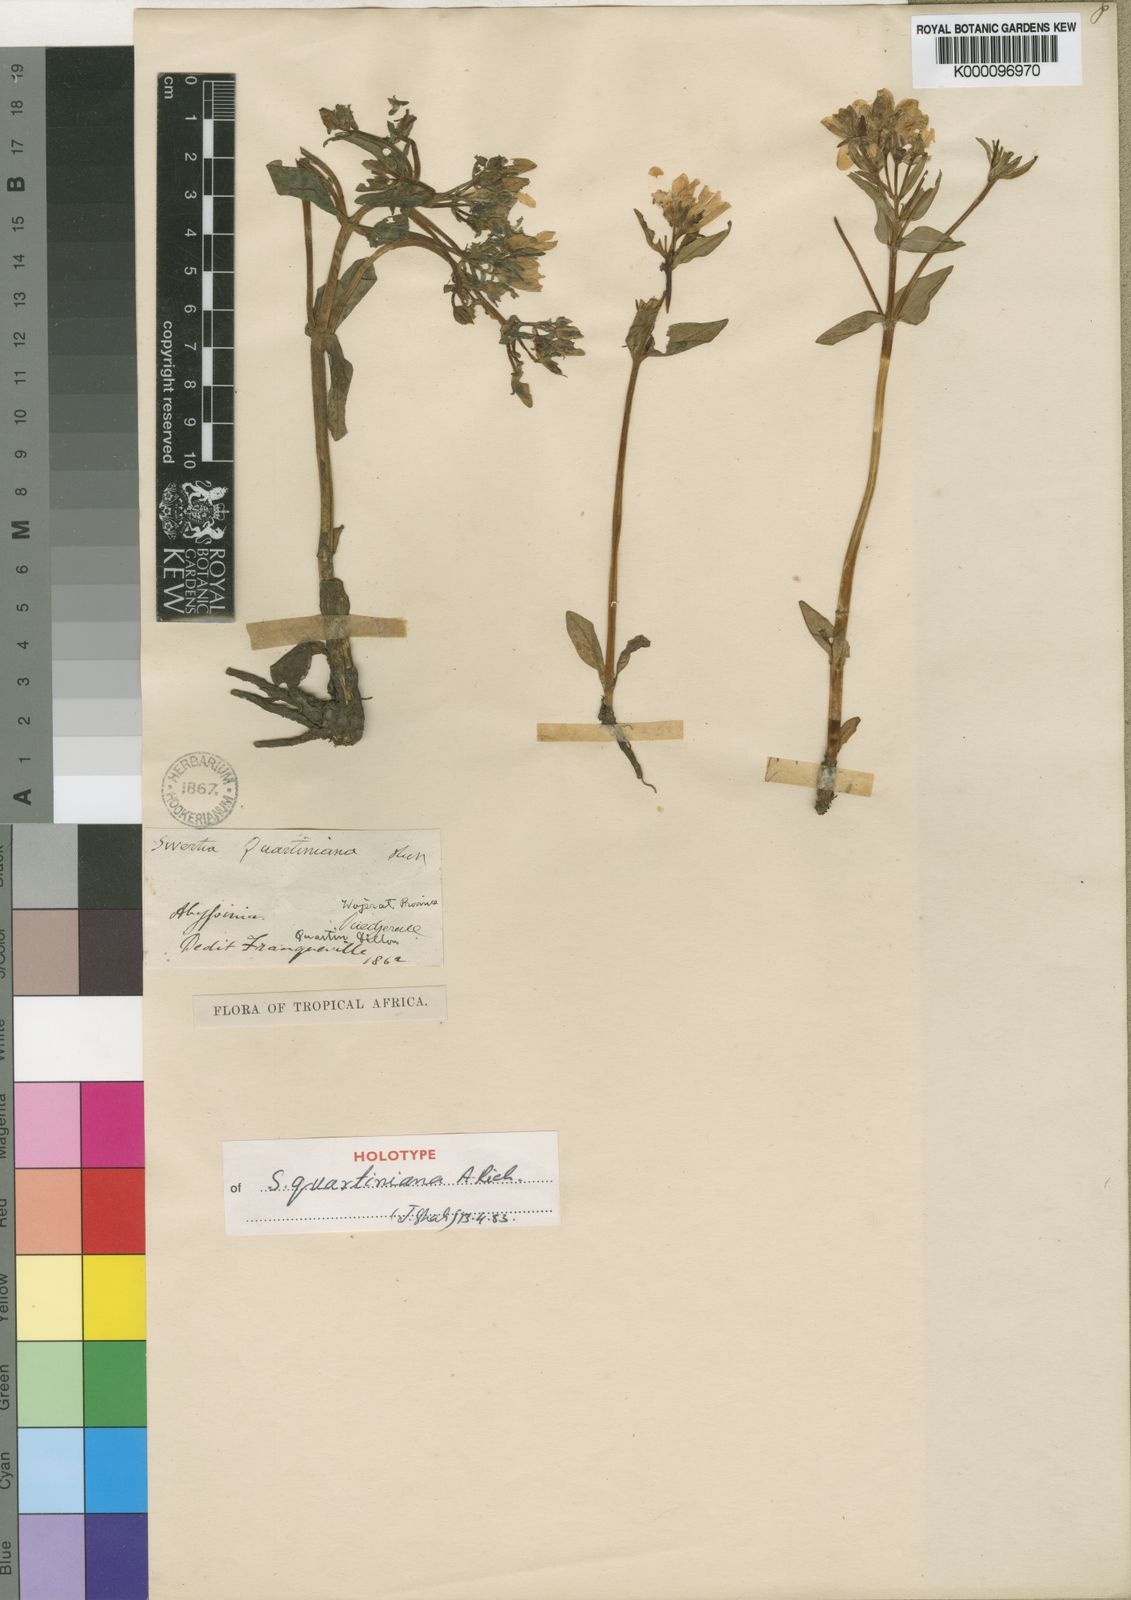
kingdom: Plantae
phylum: Tracheophyta
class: Magnoliopsida
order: Gentianales
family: Gentianaceae
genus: Swertia
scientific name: Swertia quartiniana
